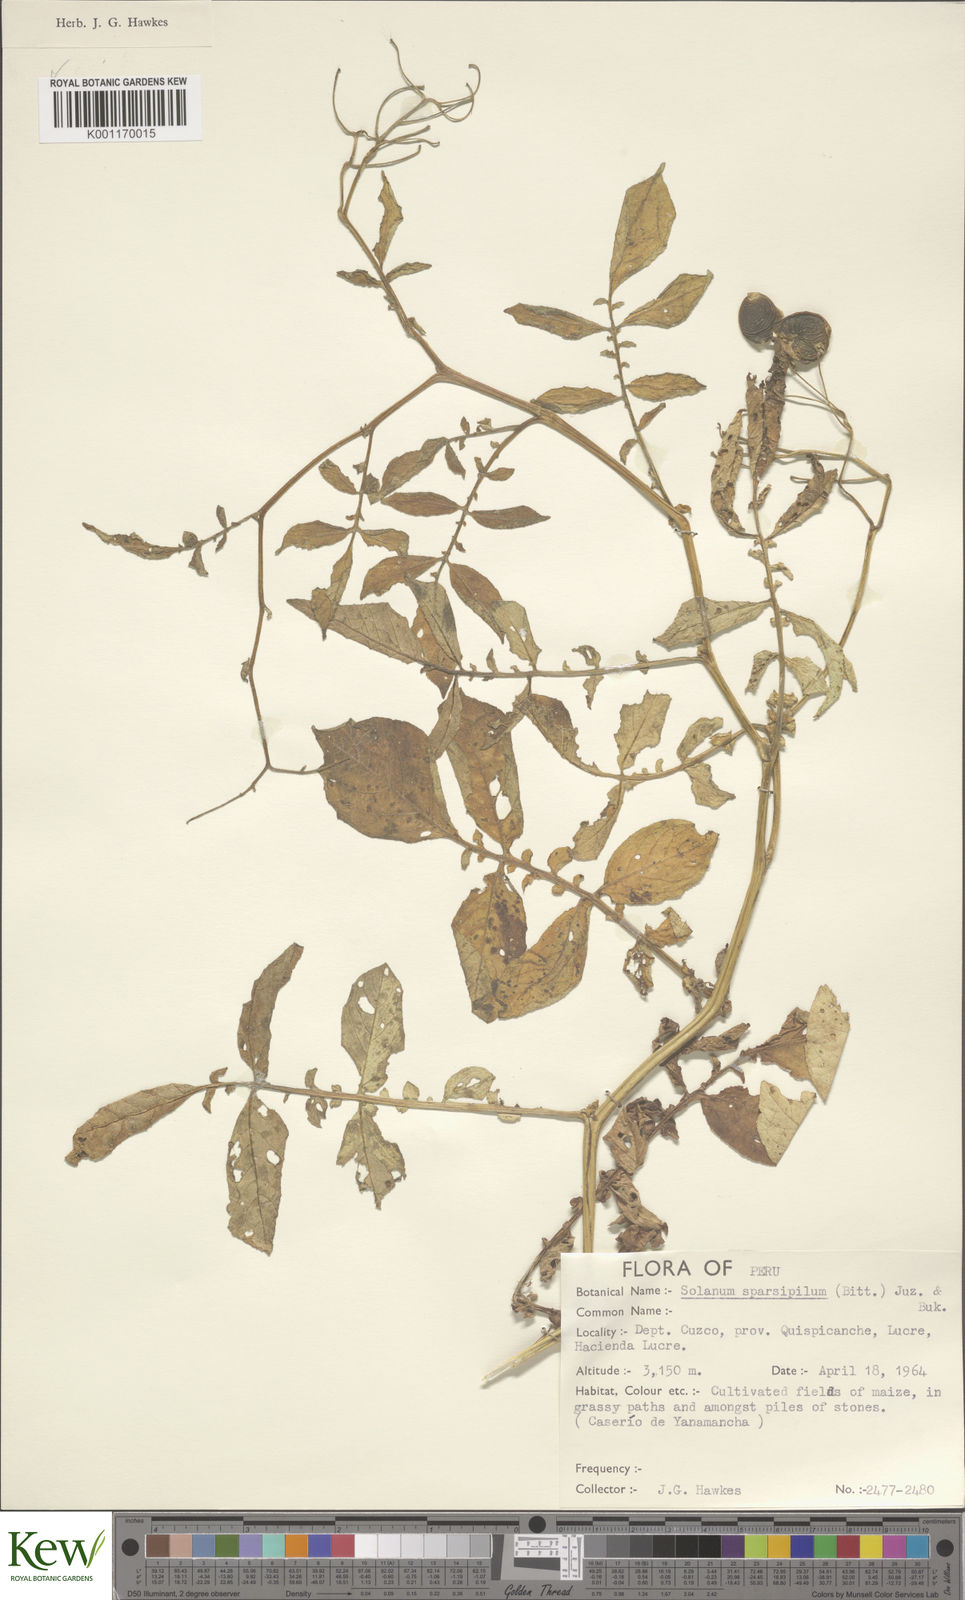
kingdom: Plantae
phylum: Tracheophyta
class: Magnoliopsida
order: Solanales
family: Solanaceae
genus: Solanum
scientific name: Solanum brevicaule
